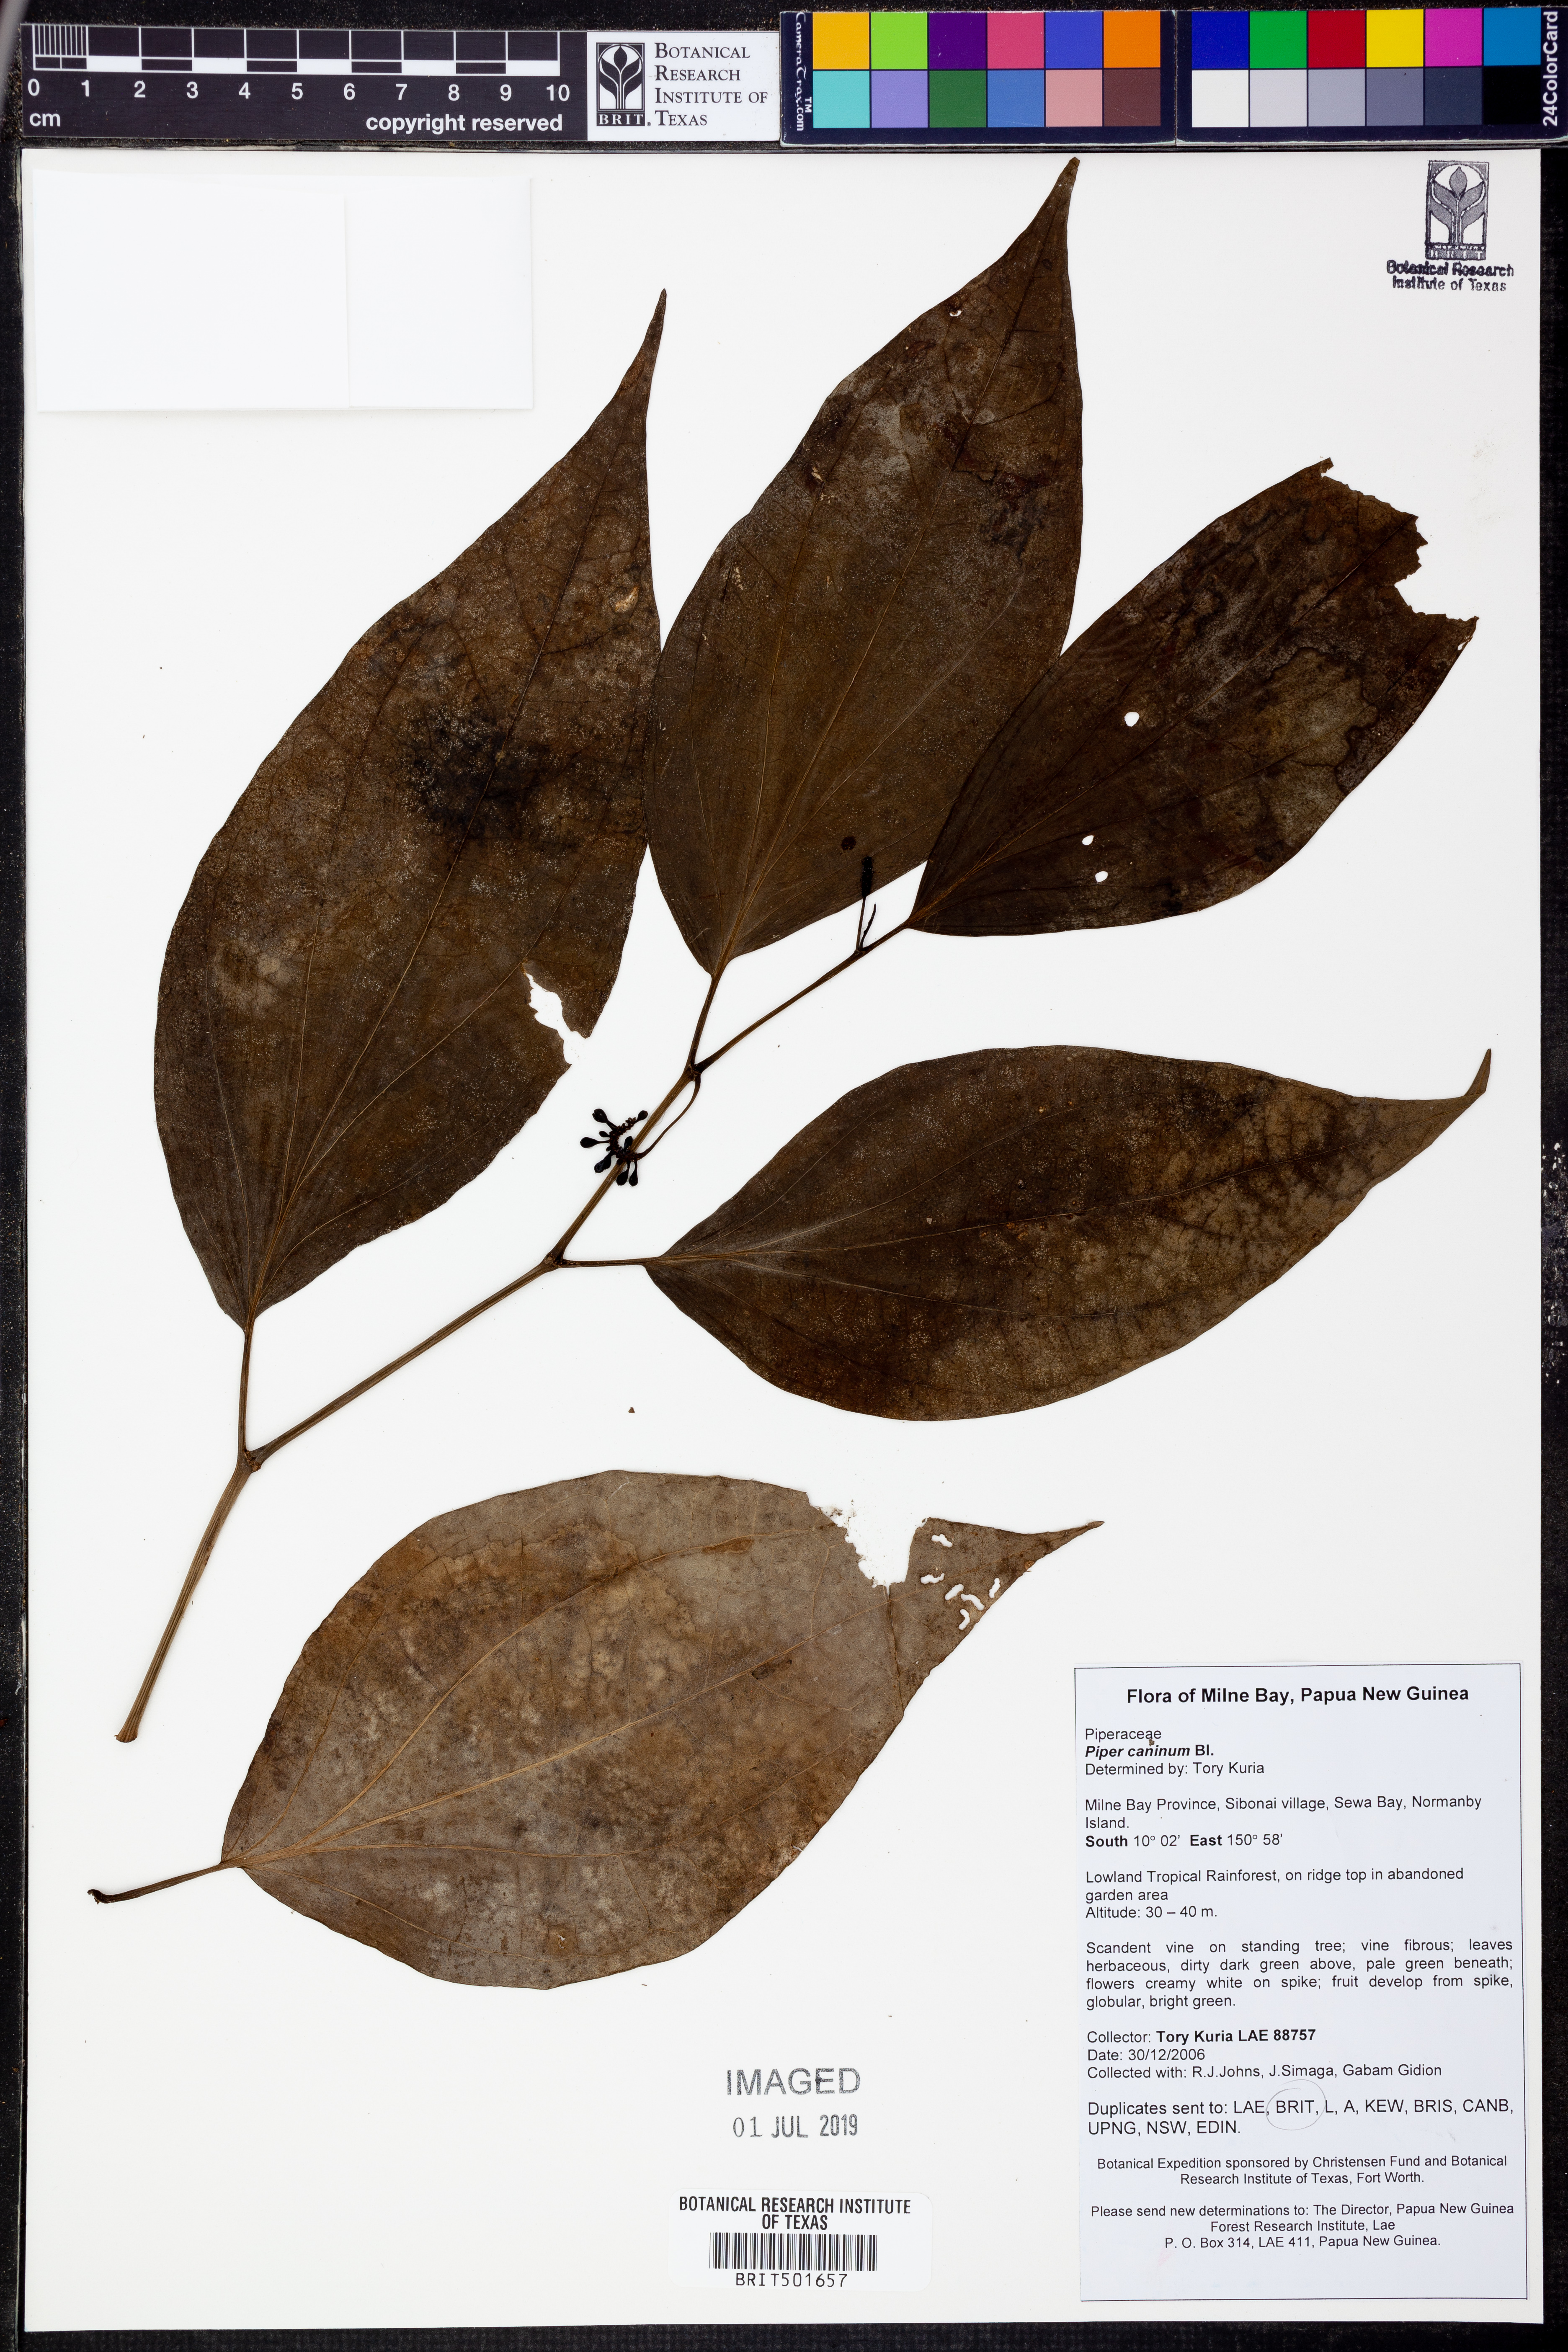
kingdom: Plantae
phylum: Tracheophyta
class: Magnoliopsida
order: Piperales
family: Piperaceae
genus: Piper
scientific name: Piper lanatum
